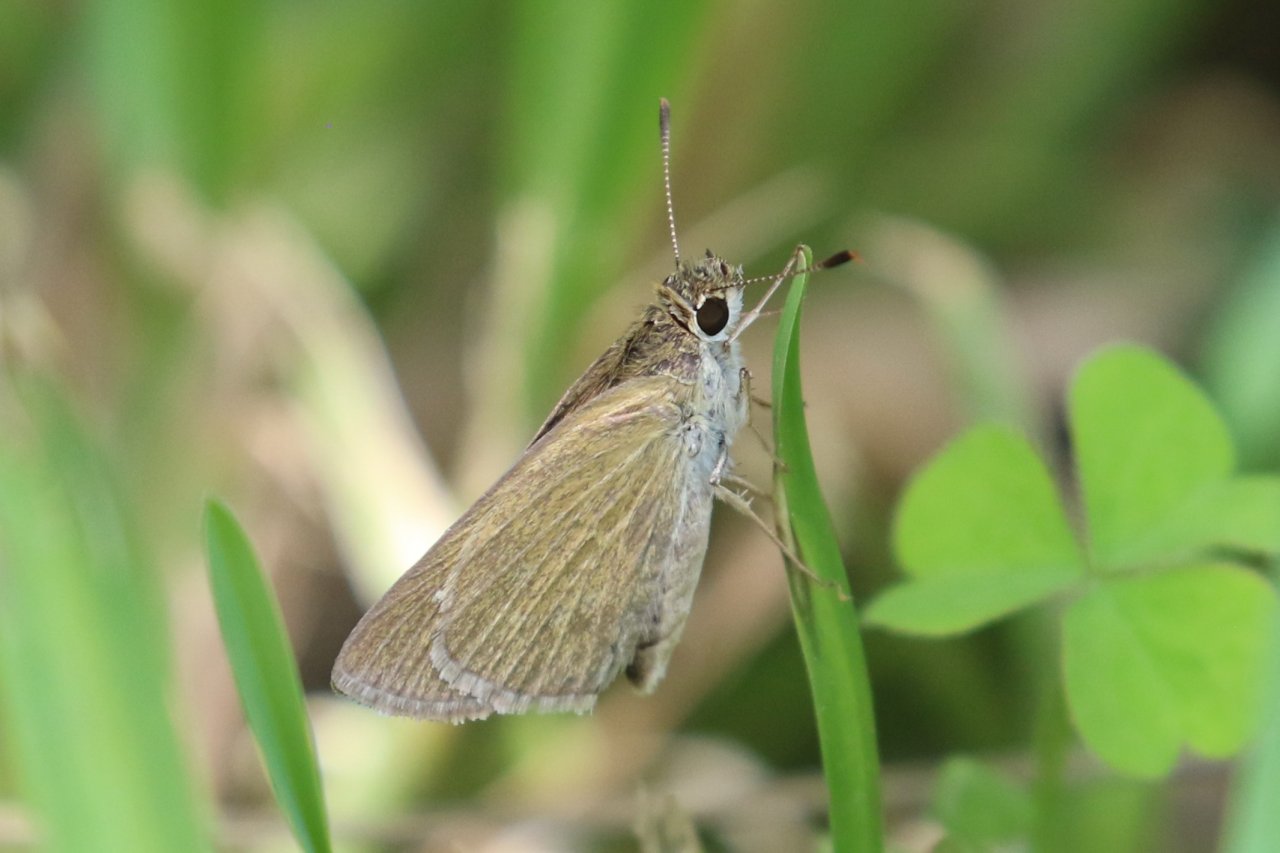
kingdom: Animalia
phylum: Arthropoda
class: Insecta
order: Lepidoptera
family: Hesperiidae
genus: Nastra
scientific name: Nastra julia
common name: Julia's Skipper
